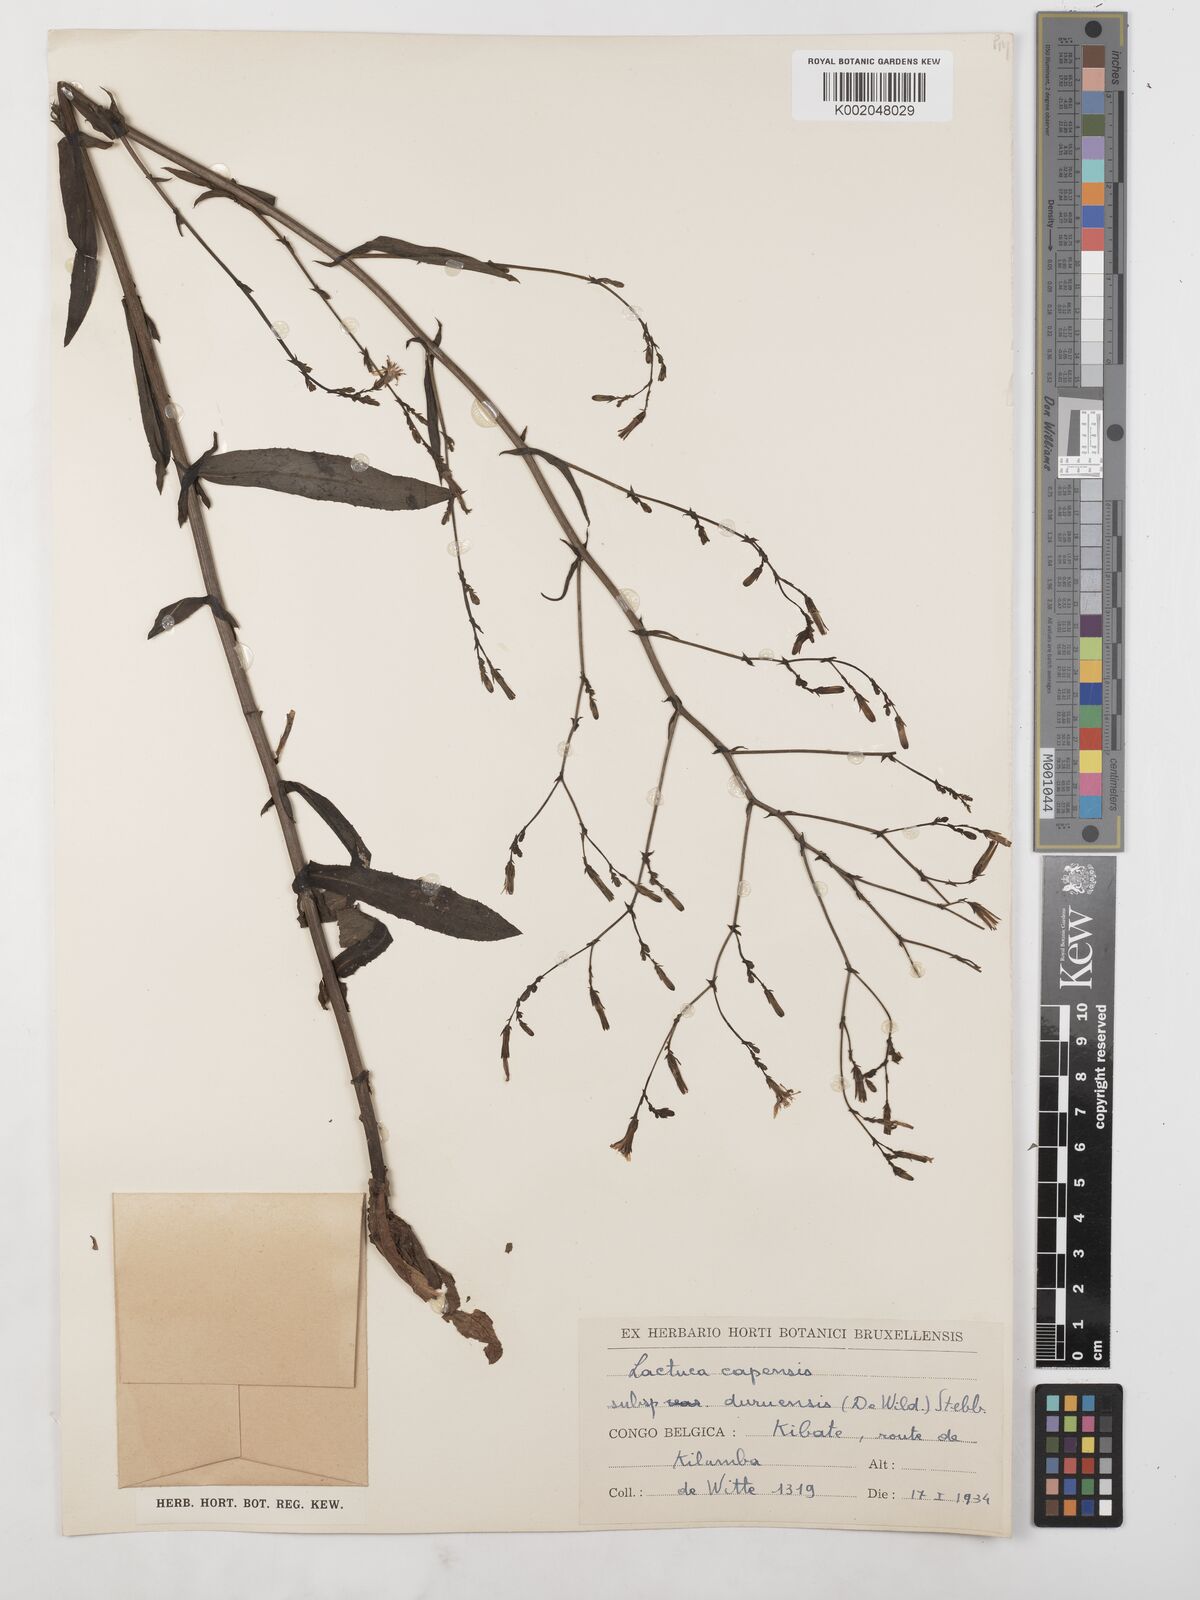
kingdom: Plantae
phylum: Tracheophyta
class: Magnoliopsida
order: Asterales
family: Asteraceae
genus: Lactuca
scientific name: Lactuca inermis
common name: Wild lettuce
